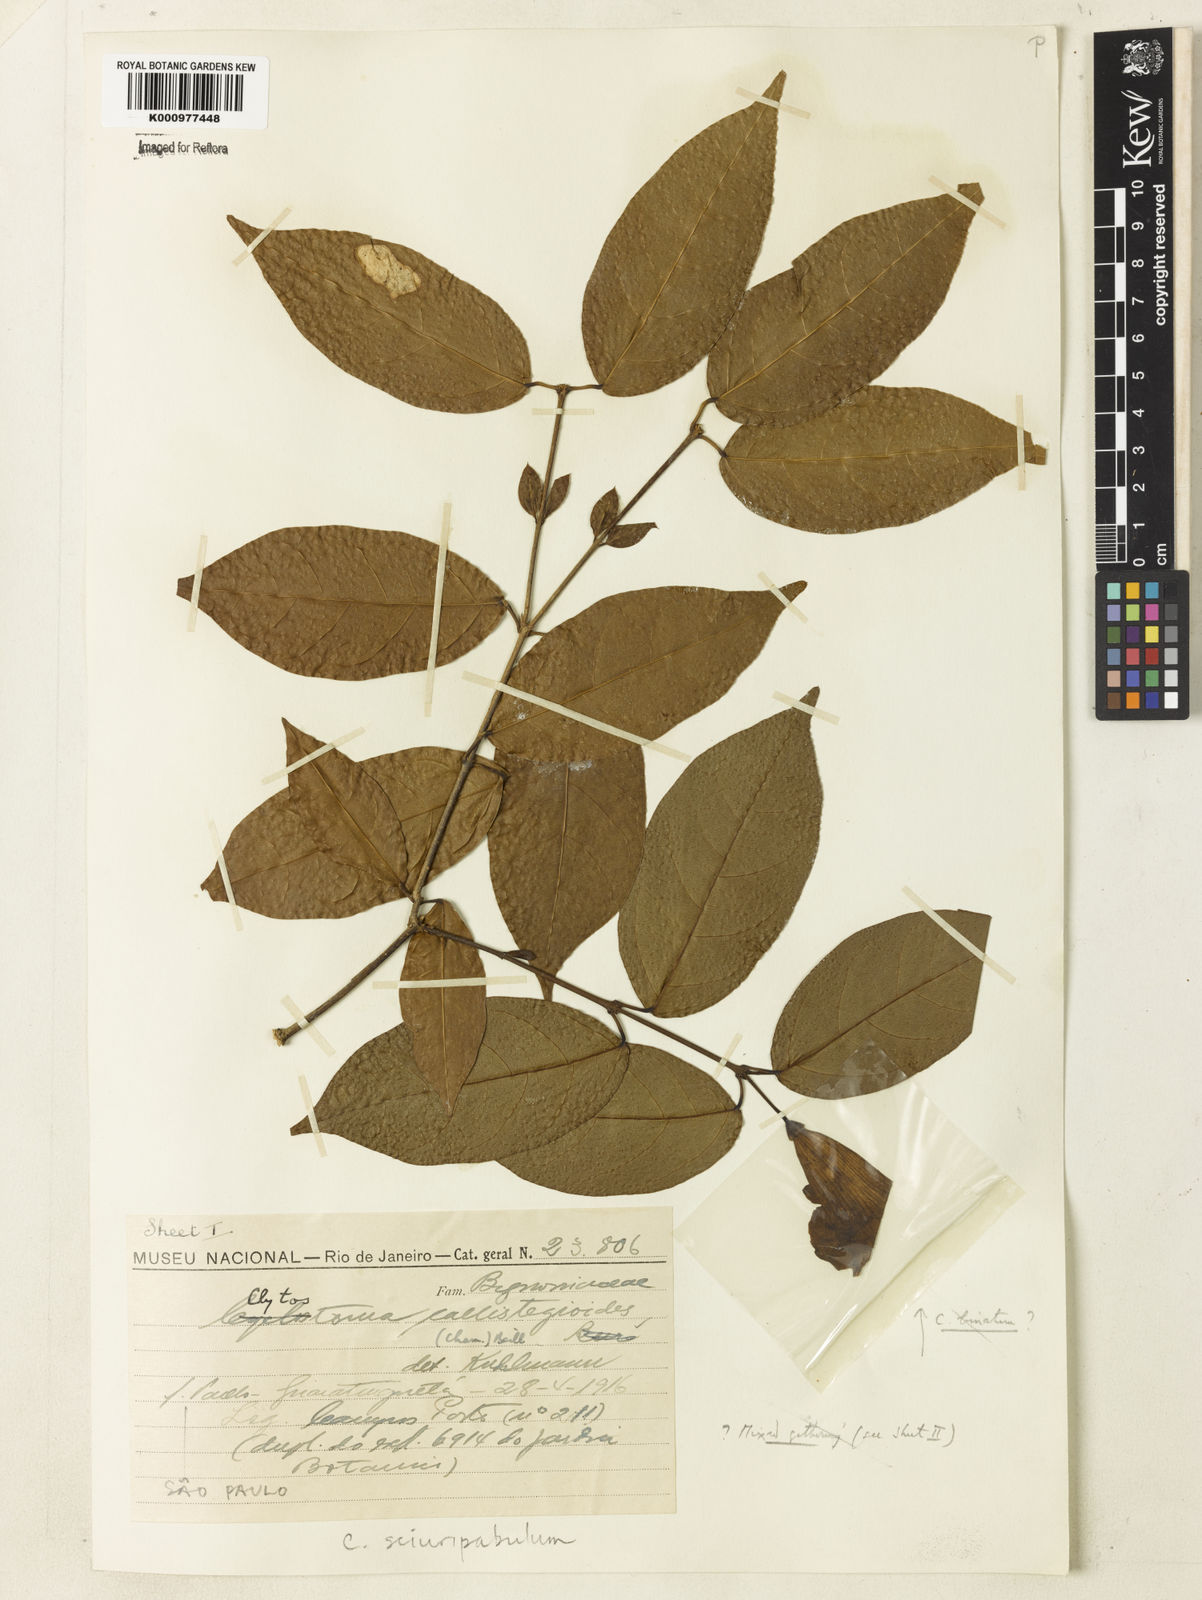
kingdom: Plantae
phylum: Tracheophyta
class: Magnoliopsida
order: Lamiales
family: Bignoniaceae
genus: Bignonia
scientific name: Bignonia
